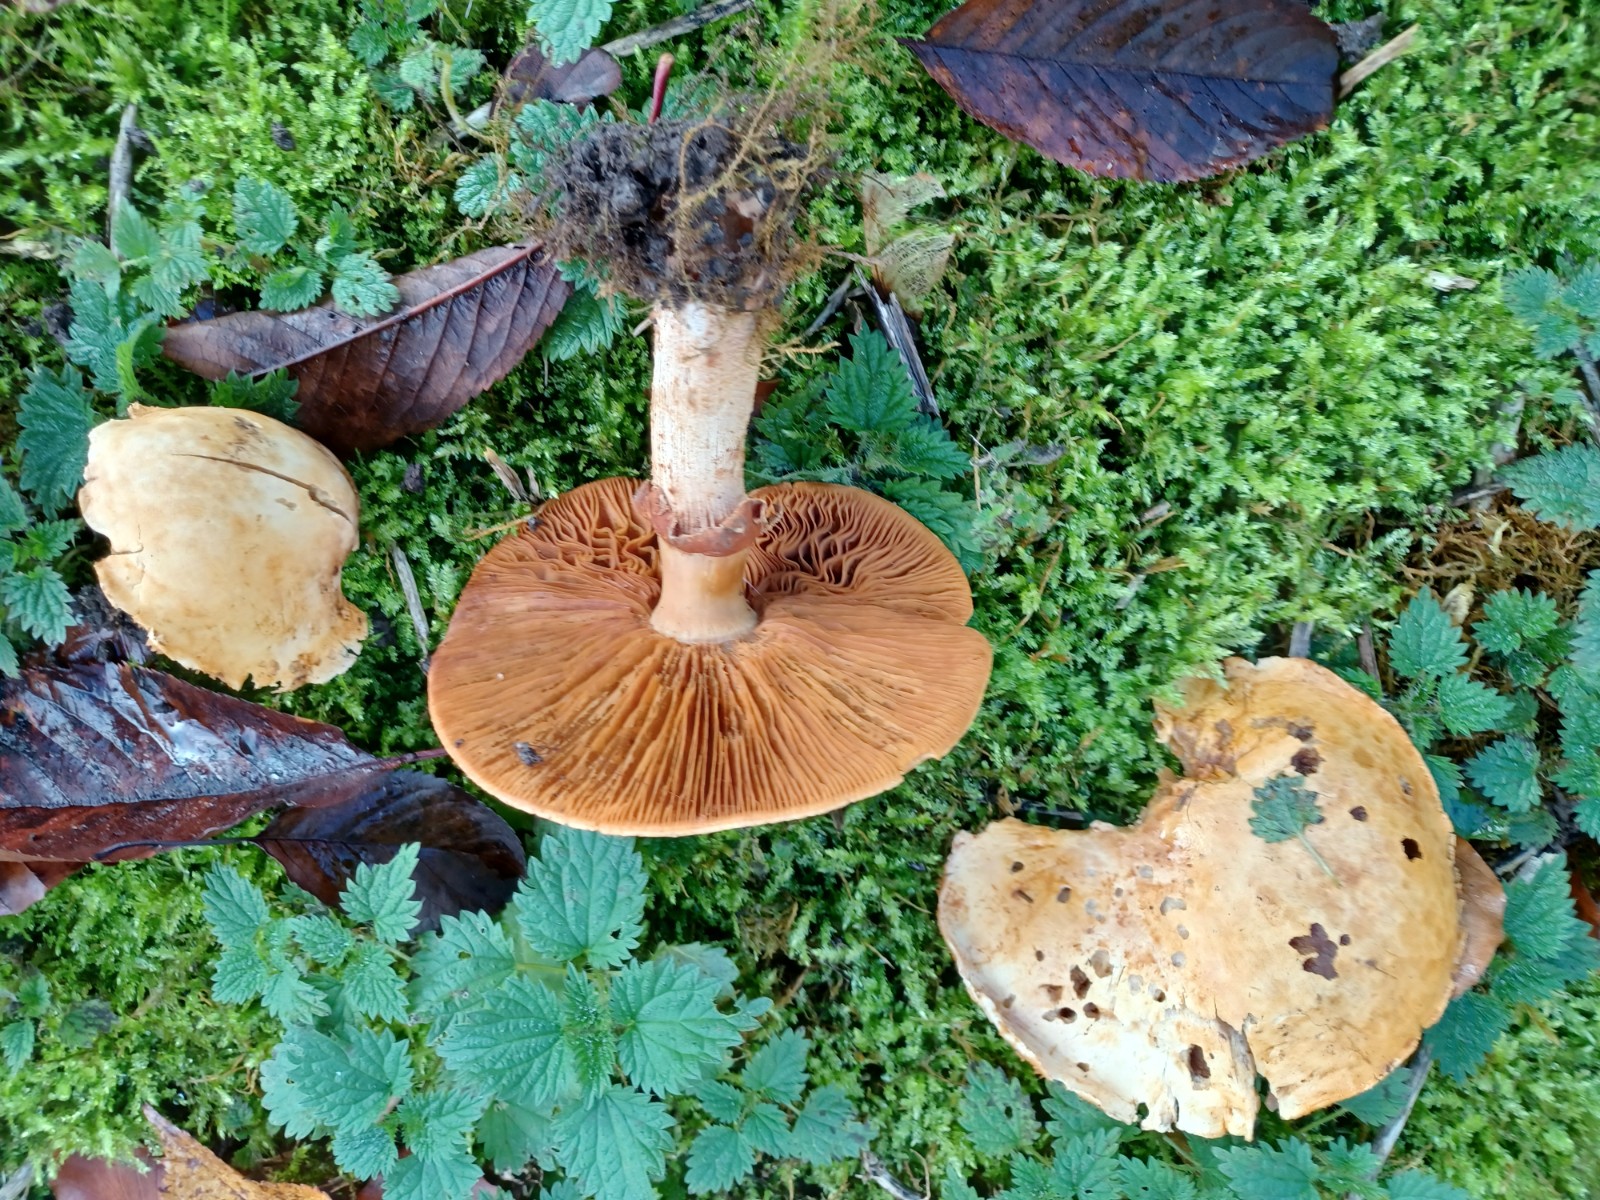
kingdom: Fungi
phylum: Basidiomycota
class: Agaricomycetes
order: Agaricales
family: Tricholomataceae
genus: Phaeolepiota
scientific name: Phaeolepiota aurea
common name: gyldenhat
